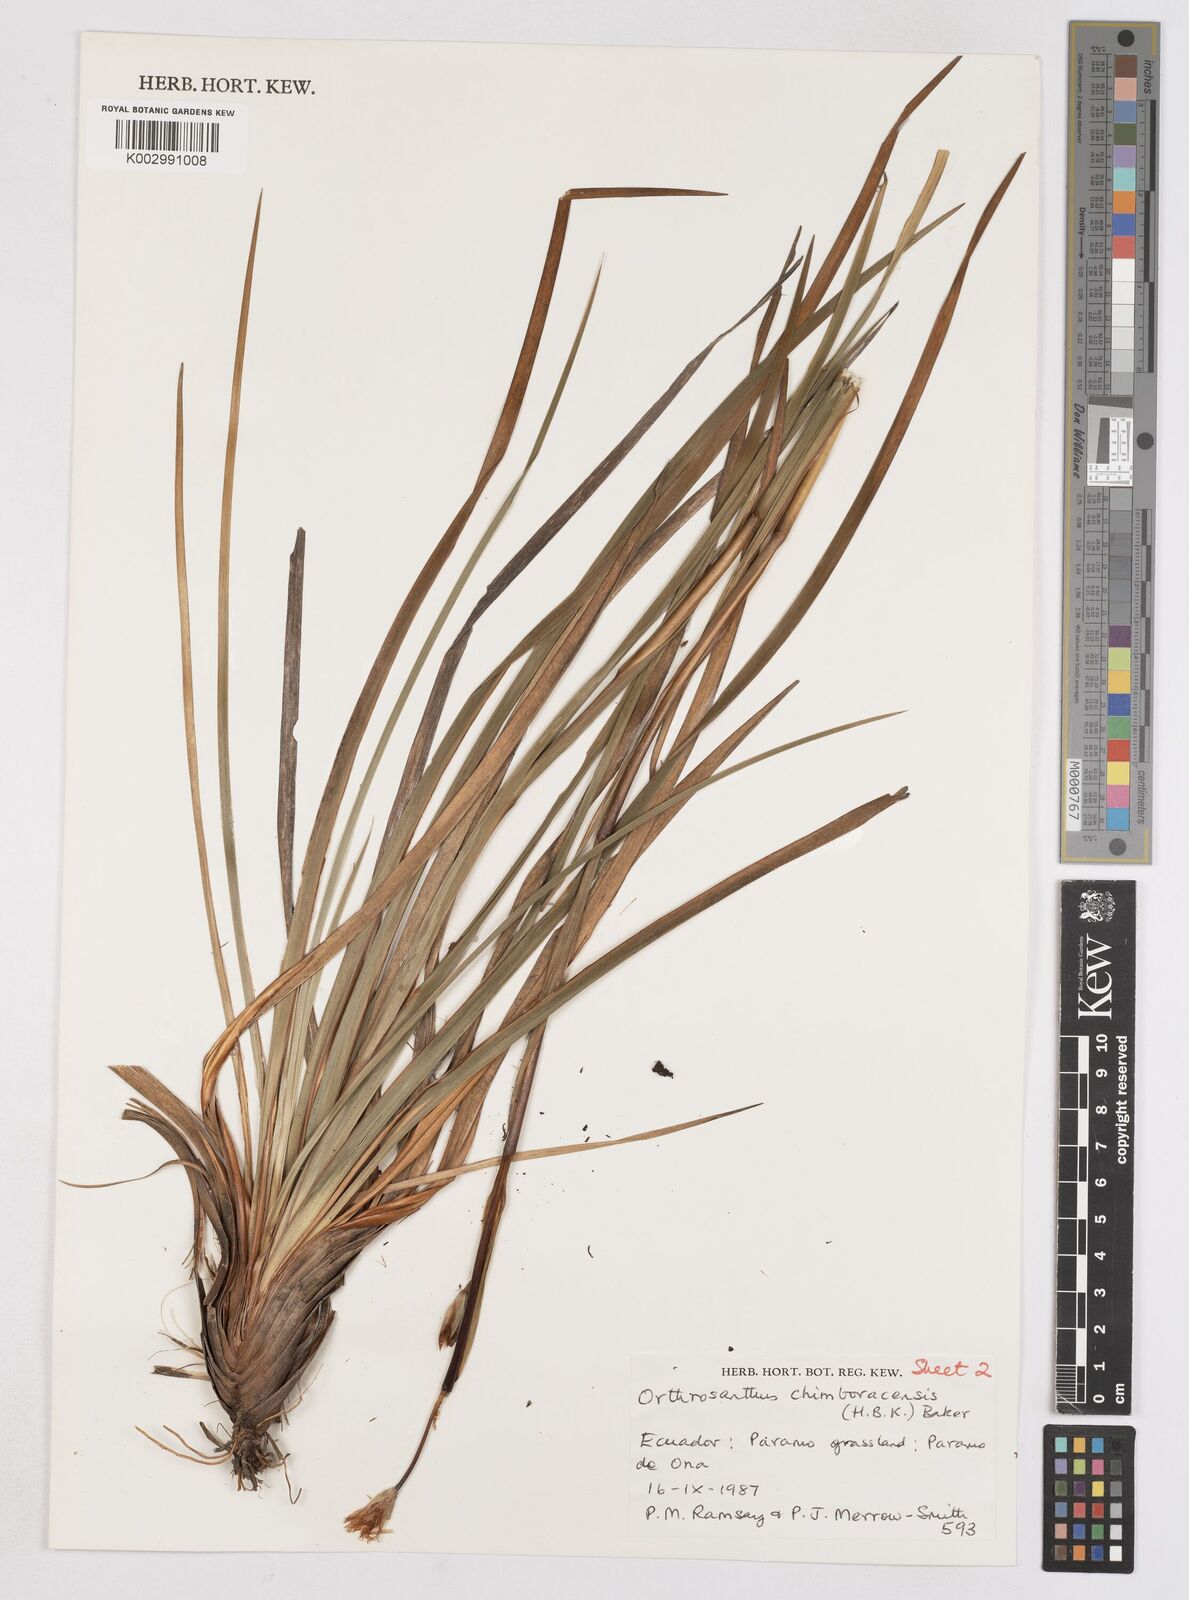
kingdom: Plantae
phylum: Tracheophyta
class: Liliopsida
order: Asparagales
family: Iridaceae
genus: Orthrosanthus
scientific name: Orthrosanthus chimboracensis
